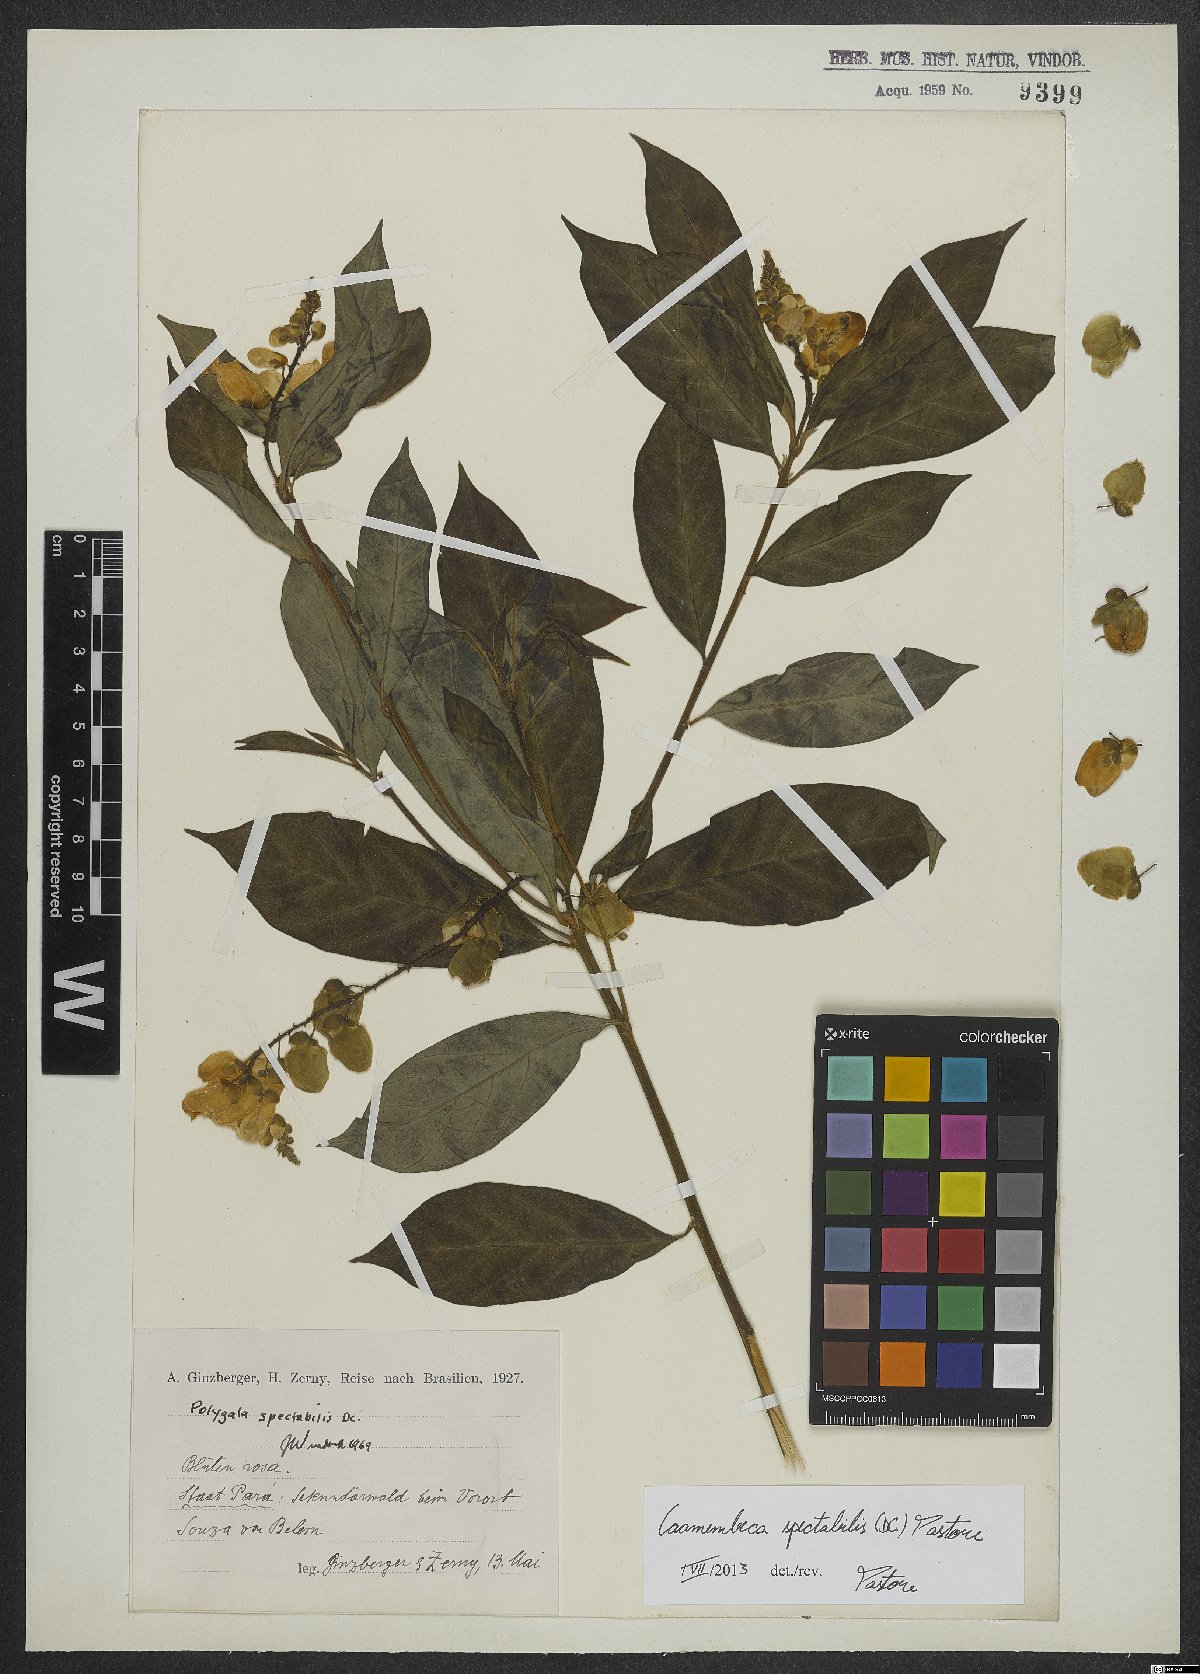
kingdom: Plantae
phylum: Tracheophyta
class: Magnoliopsida
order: Fabales
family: Polygalaceae
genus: Caamembeca
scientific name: Caamembeca spectabilis
